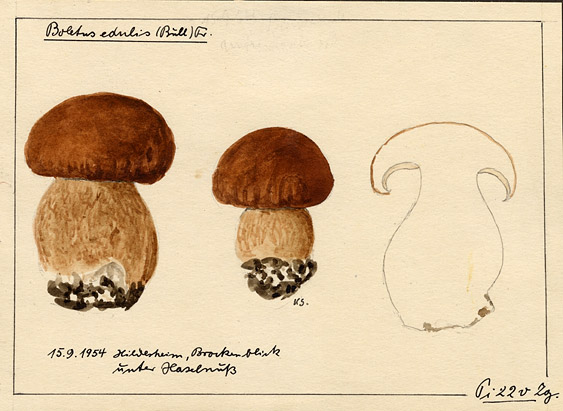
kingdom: Fungi
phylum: Basidiomycota
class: Agaricomycetes
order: Boletales
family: Boletaceae
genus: Boletus
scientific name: Boletus edulis
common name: Cep
